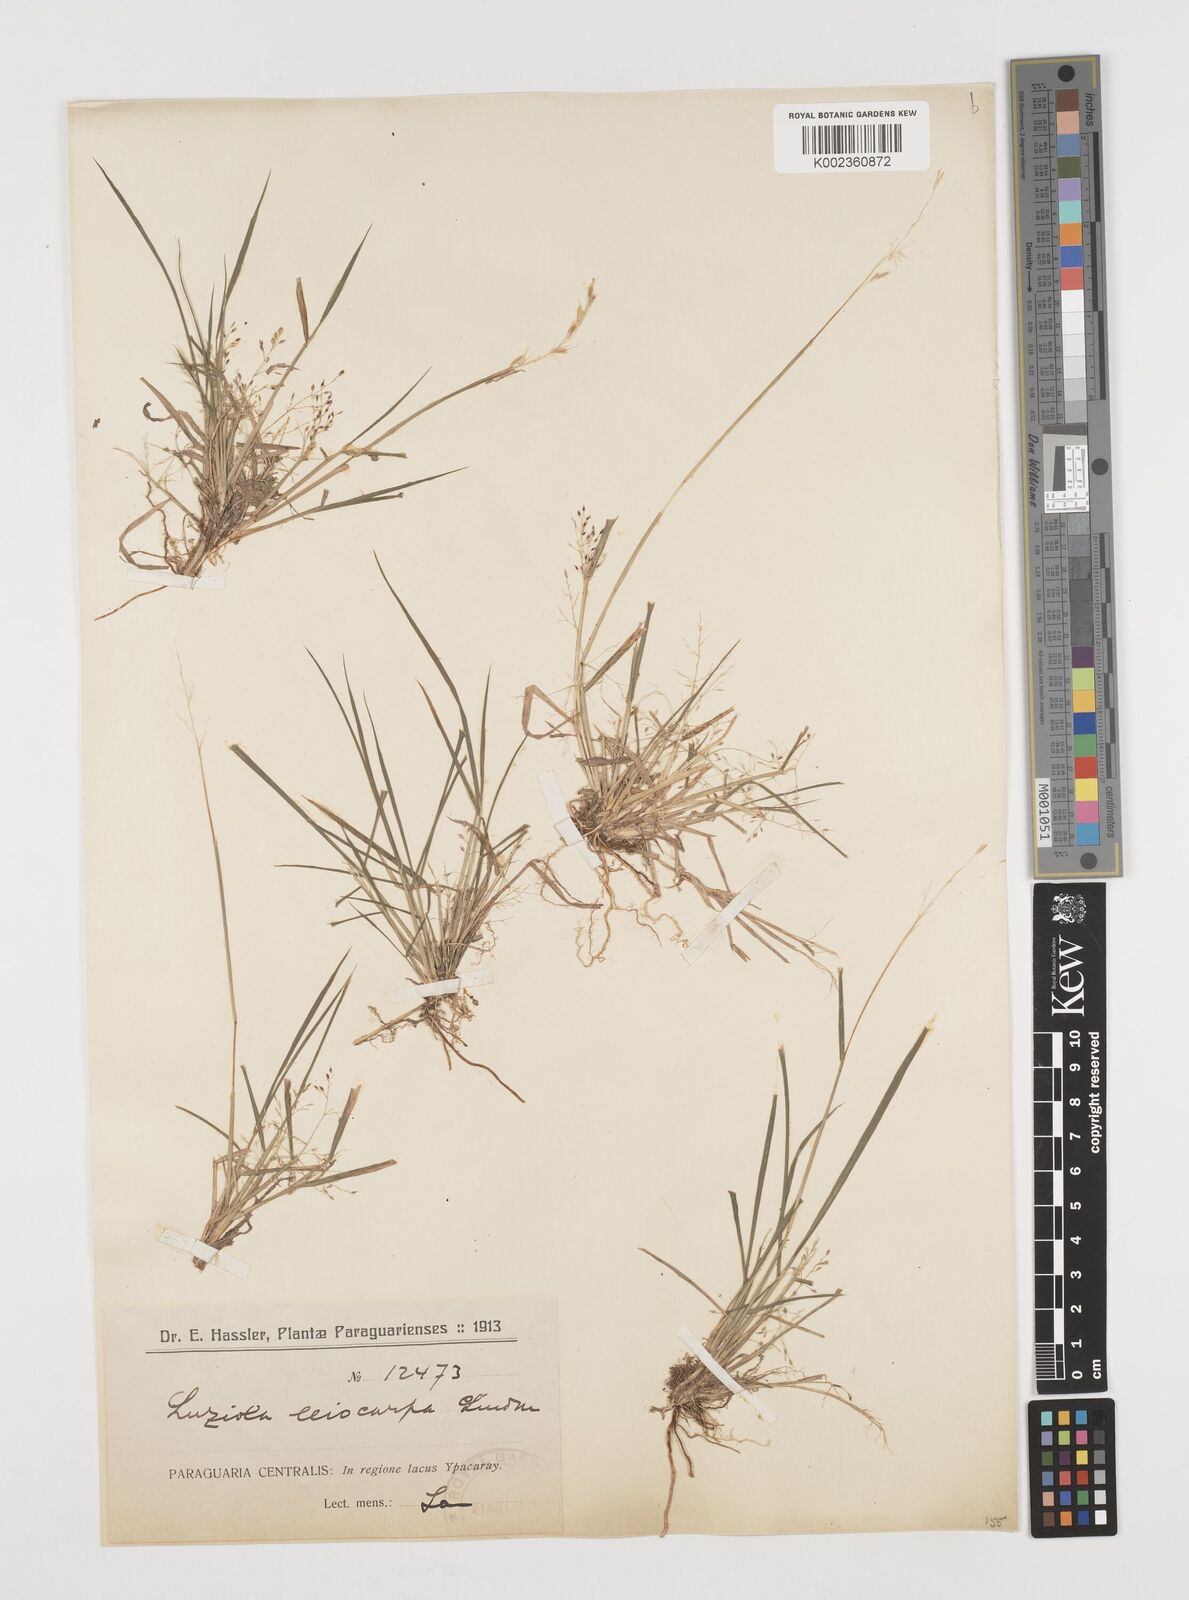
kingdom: Plantae
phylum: Tracheophyta
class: Liliopsida
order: Poales
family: Poaceae
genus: Luziola
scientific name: Luziola peruviana
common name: Peruvian watergrass
